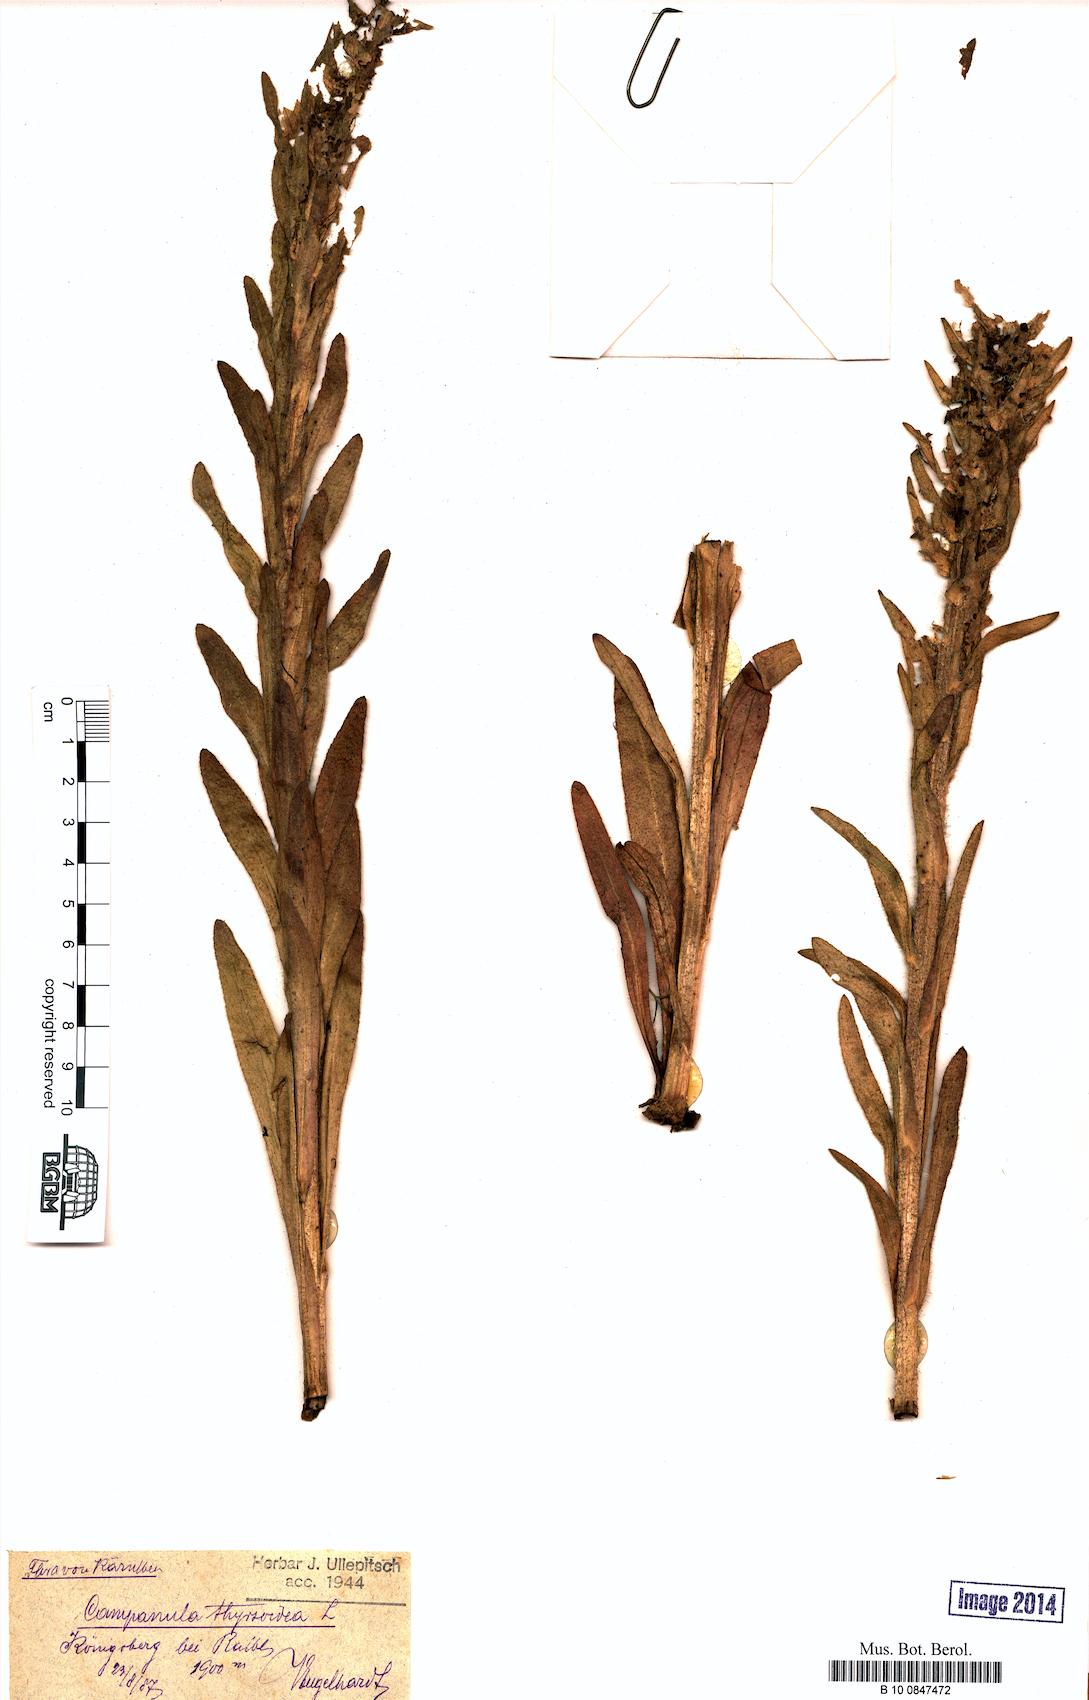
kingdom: Plantae
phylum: Tracheophyta
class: Magnoliopsida
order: Asterales
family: Campanulaceae
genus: Campanula
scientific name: Campanula thyrsoides
